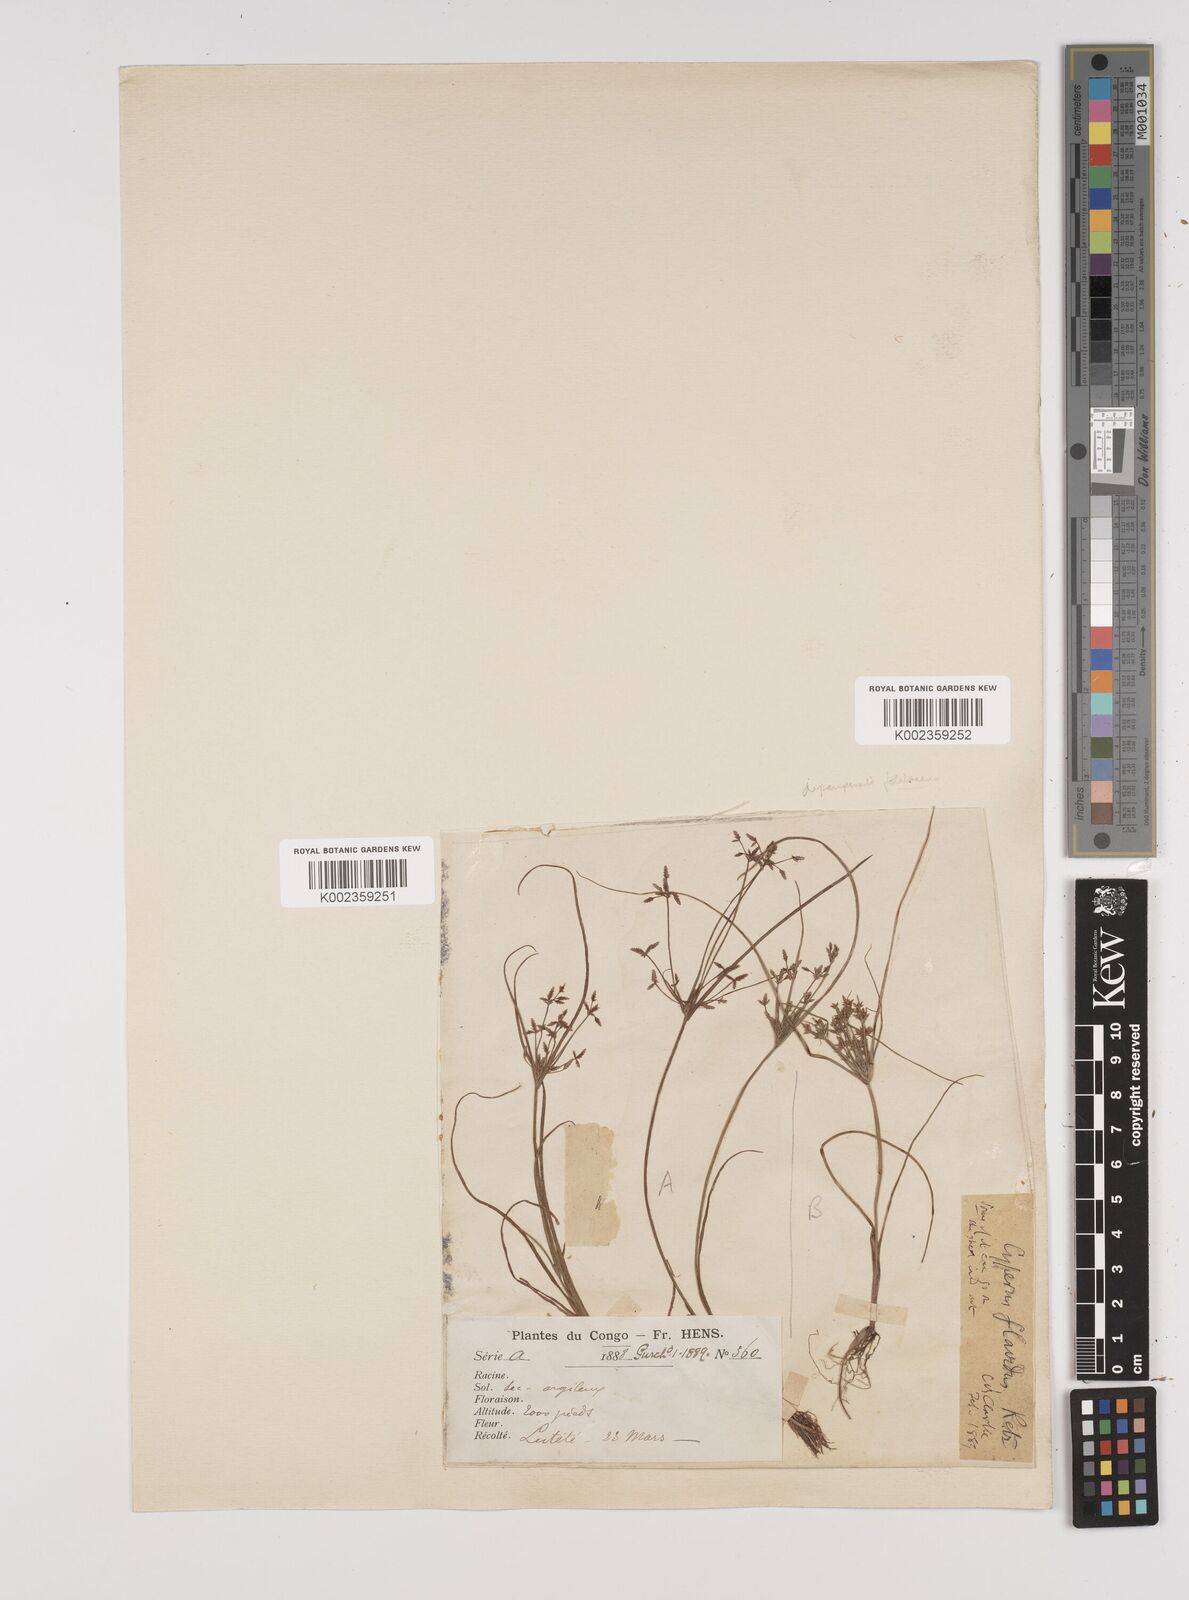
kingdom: Plantae
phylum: Tracheophyta
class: Liliopsida
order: Poales
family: Cyperaceae
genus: Cyperus
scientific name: Cyperus haspan
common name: Haspan flatsedge
